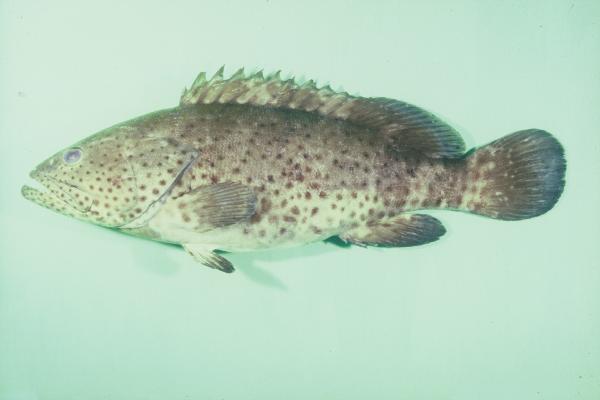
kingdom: Animalia
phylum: Chordata
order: Perciformes
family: Serranidae
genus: Epinephelus
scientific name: Epinephelus malabaricus
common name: Malabar grouper
